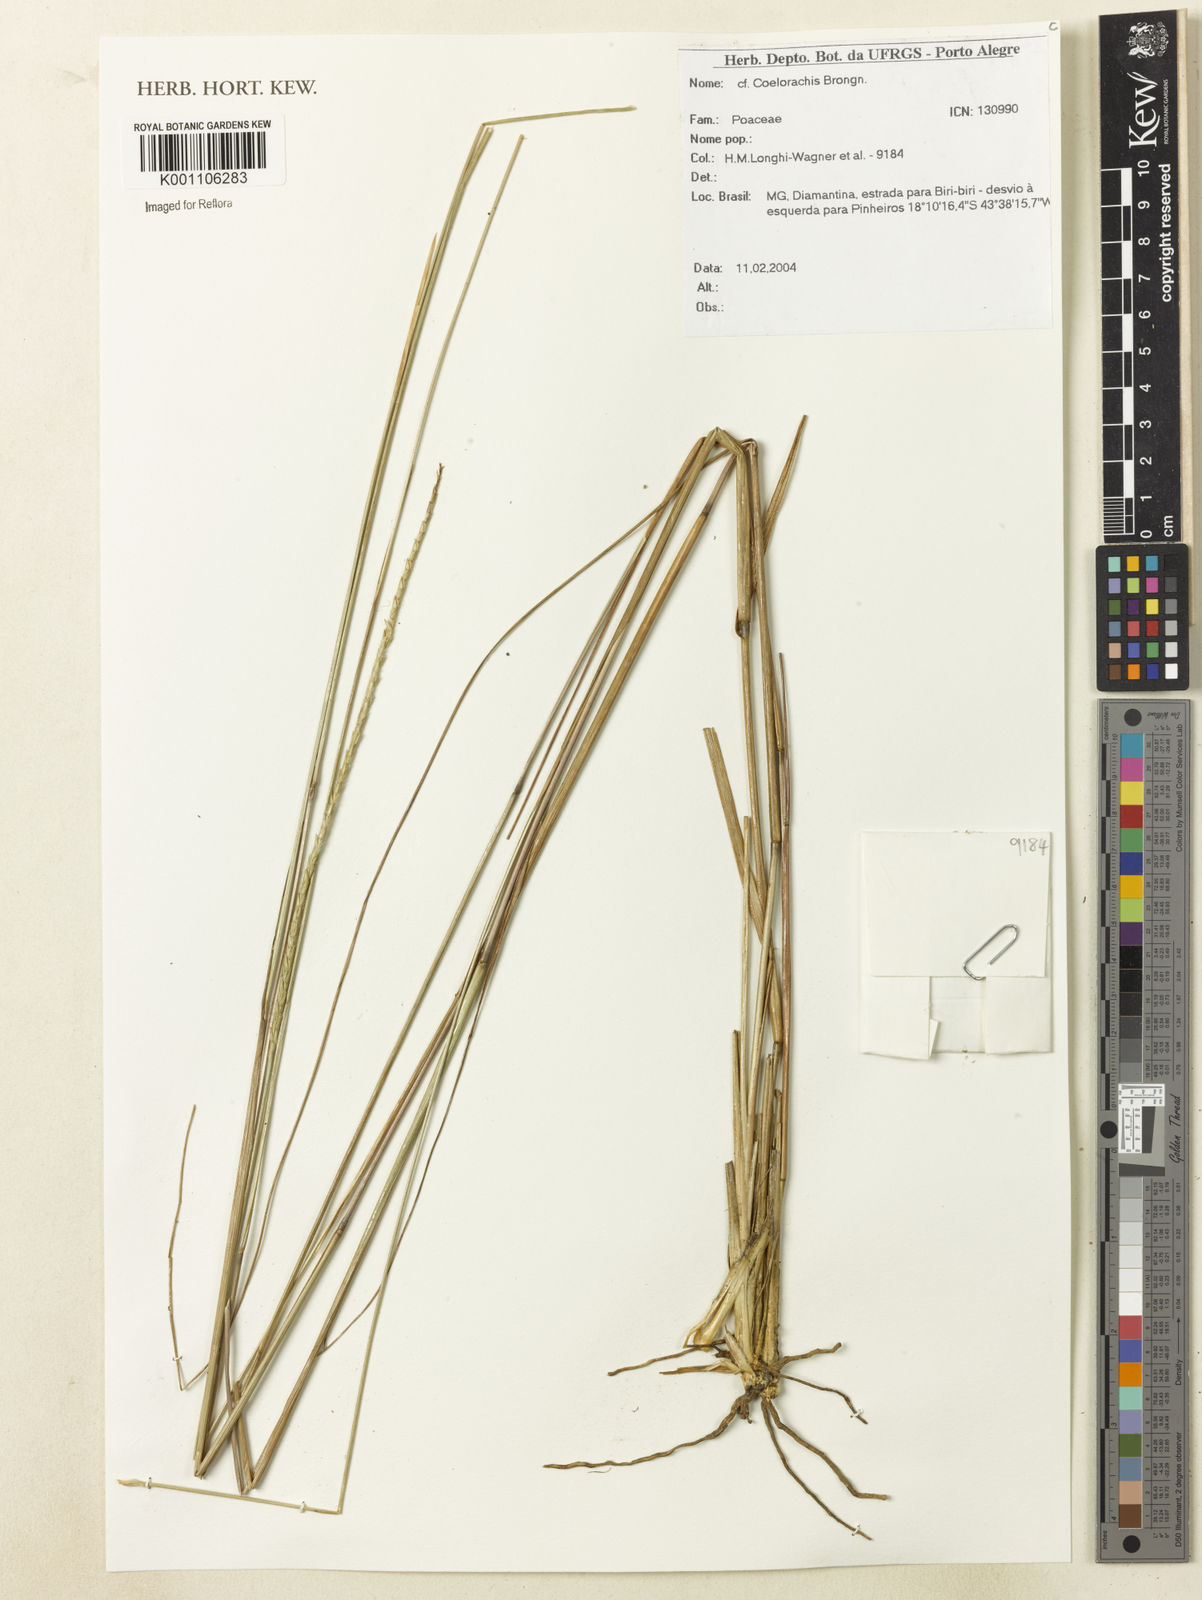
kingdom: Plantae
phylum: Tracheophyta
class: Liliopsida
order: Poales
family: Poaceae
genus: Rottboellia
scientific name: Rottboellia
